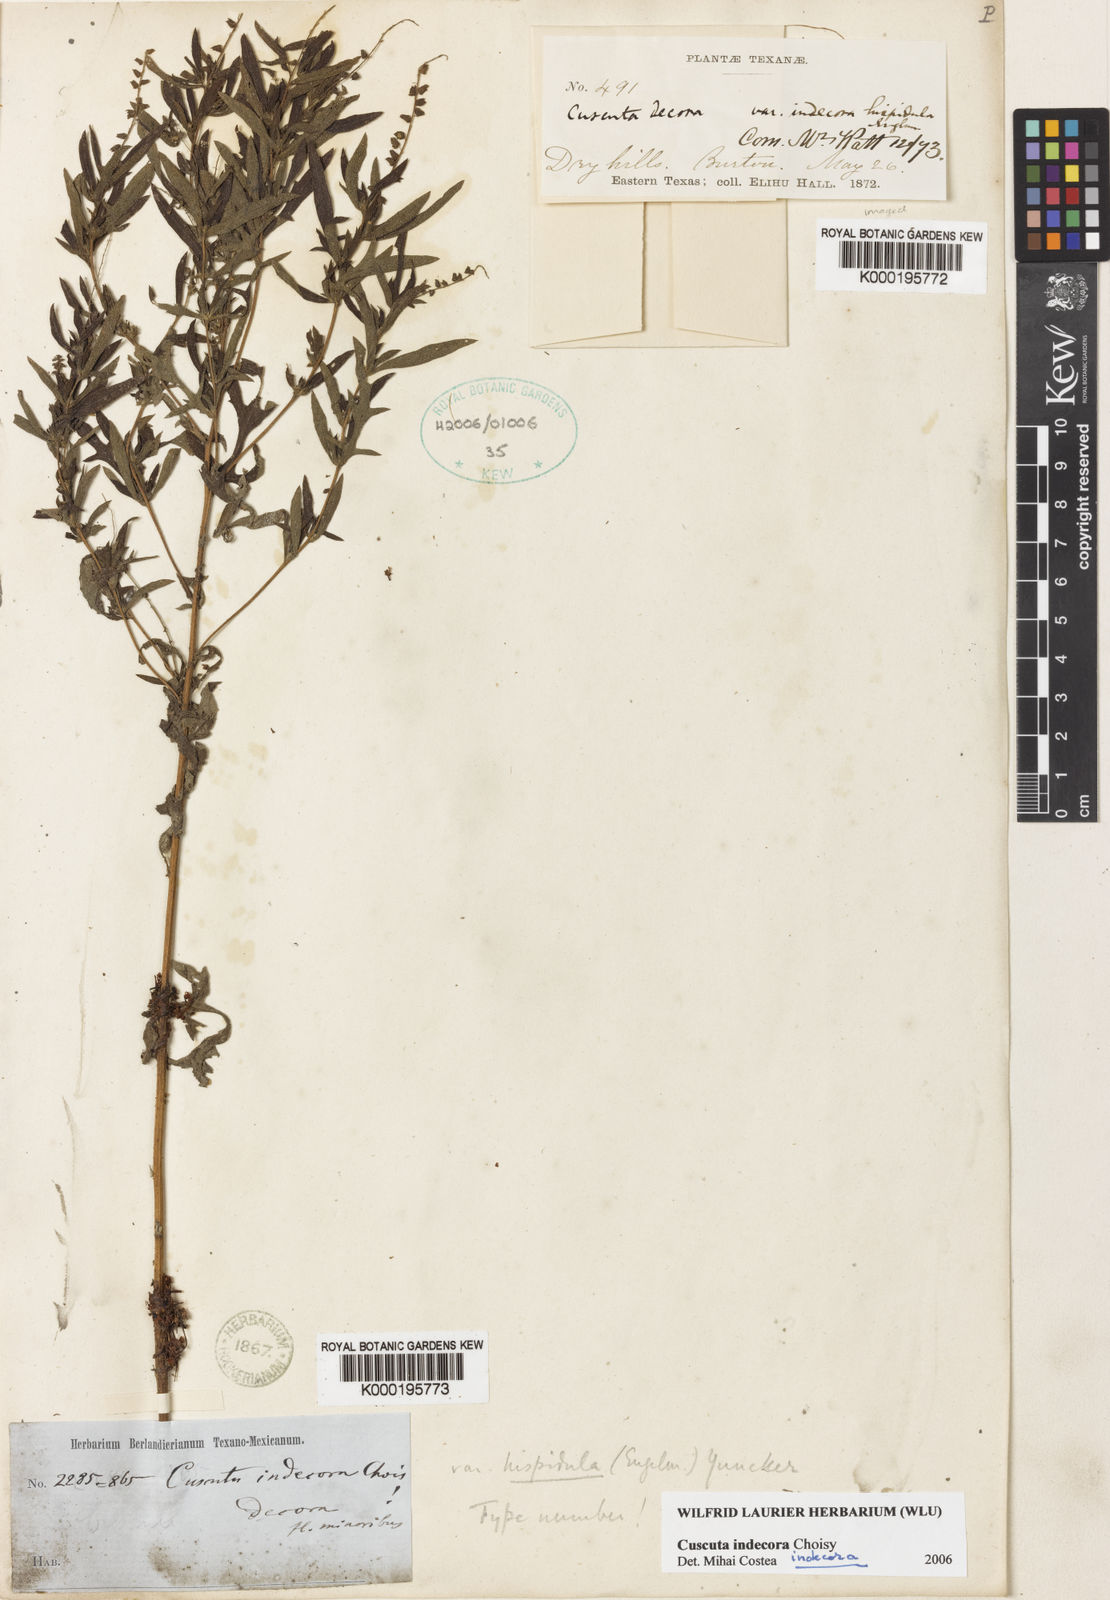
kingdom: Plantae
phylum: Tracheophyta
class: Magnoliopsida
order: Solanales
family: Convolvulaceae
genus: Cuscuta
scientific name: Cuscuta indecora
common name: Large-seed dodder
